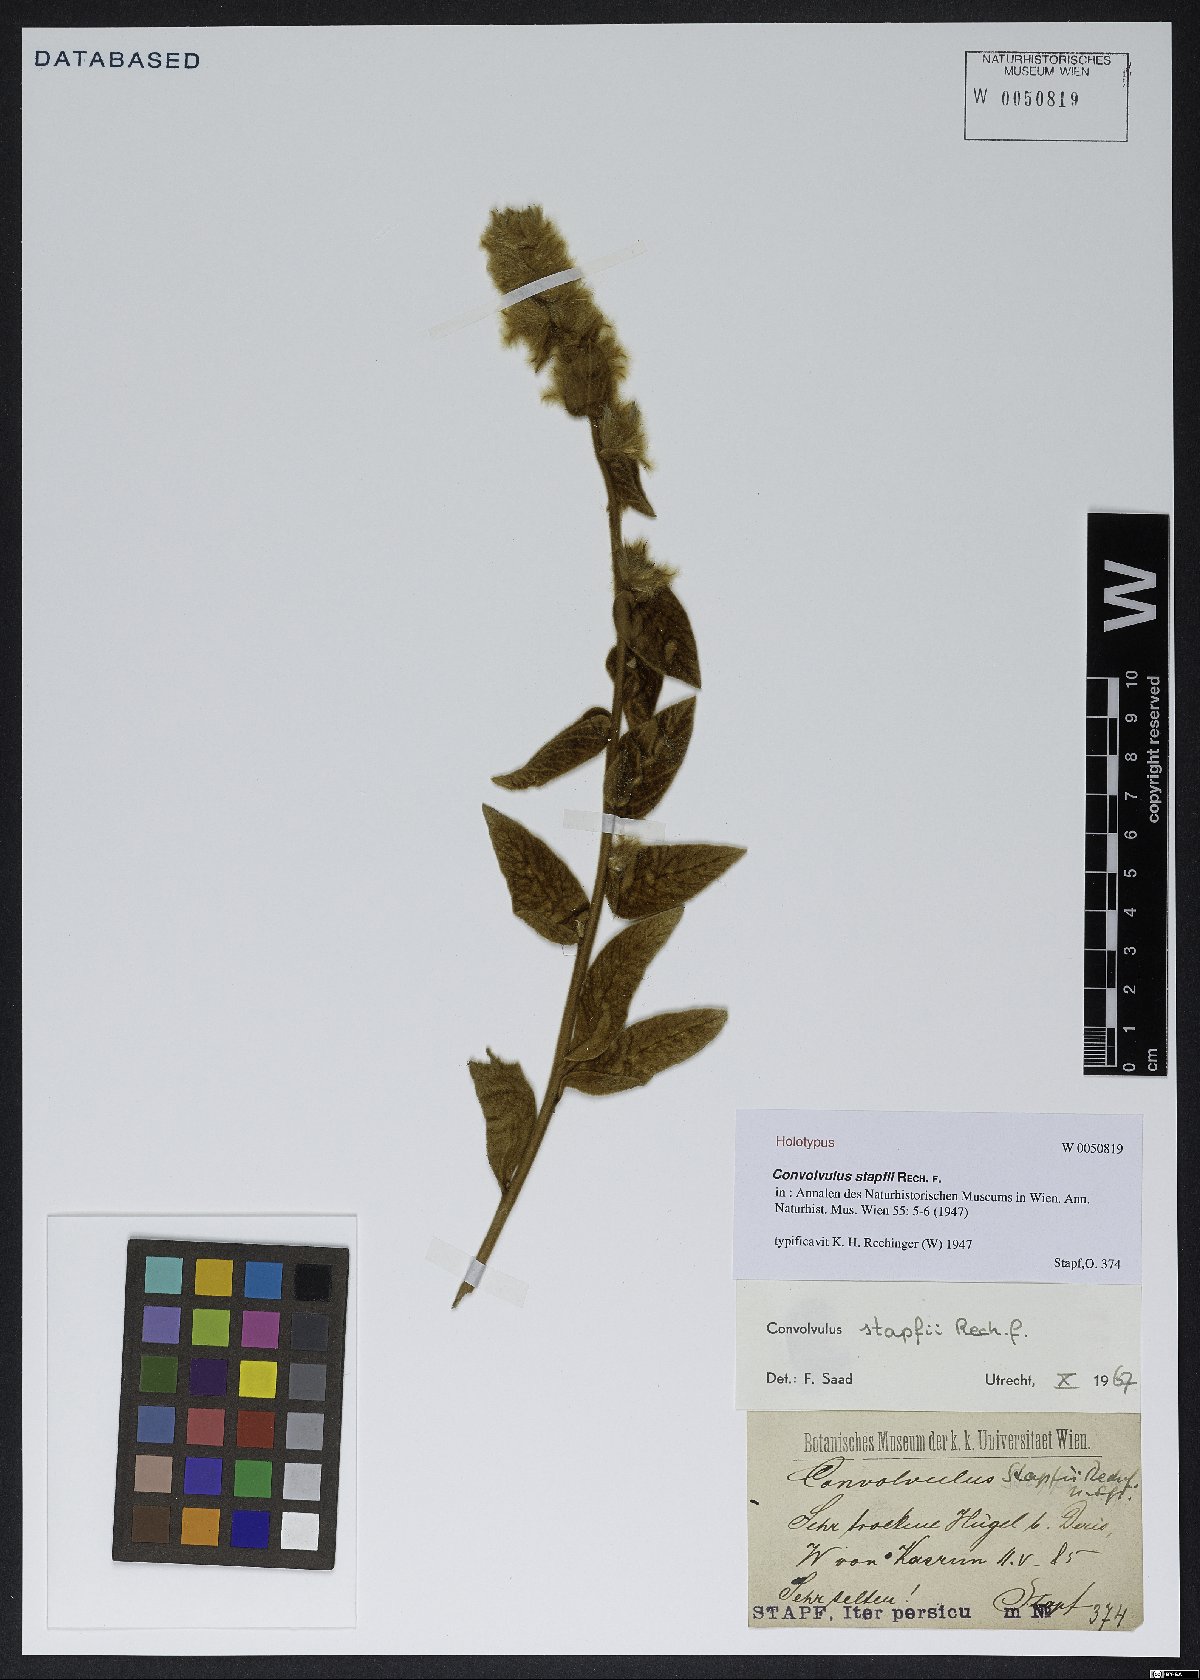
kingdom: Plantae
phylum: Tracheophyta
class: Magnoliopsida
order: Solanales
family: Convolvulaceae
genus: Convolvulus
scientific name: Convolvulus stapfii
